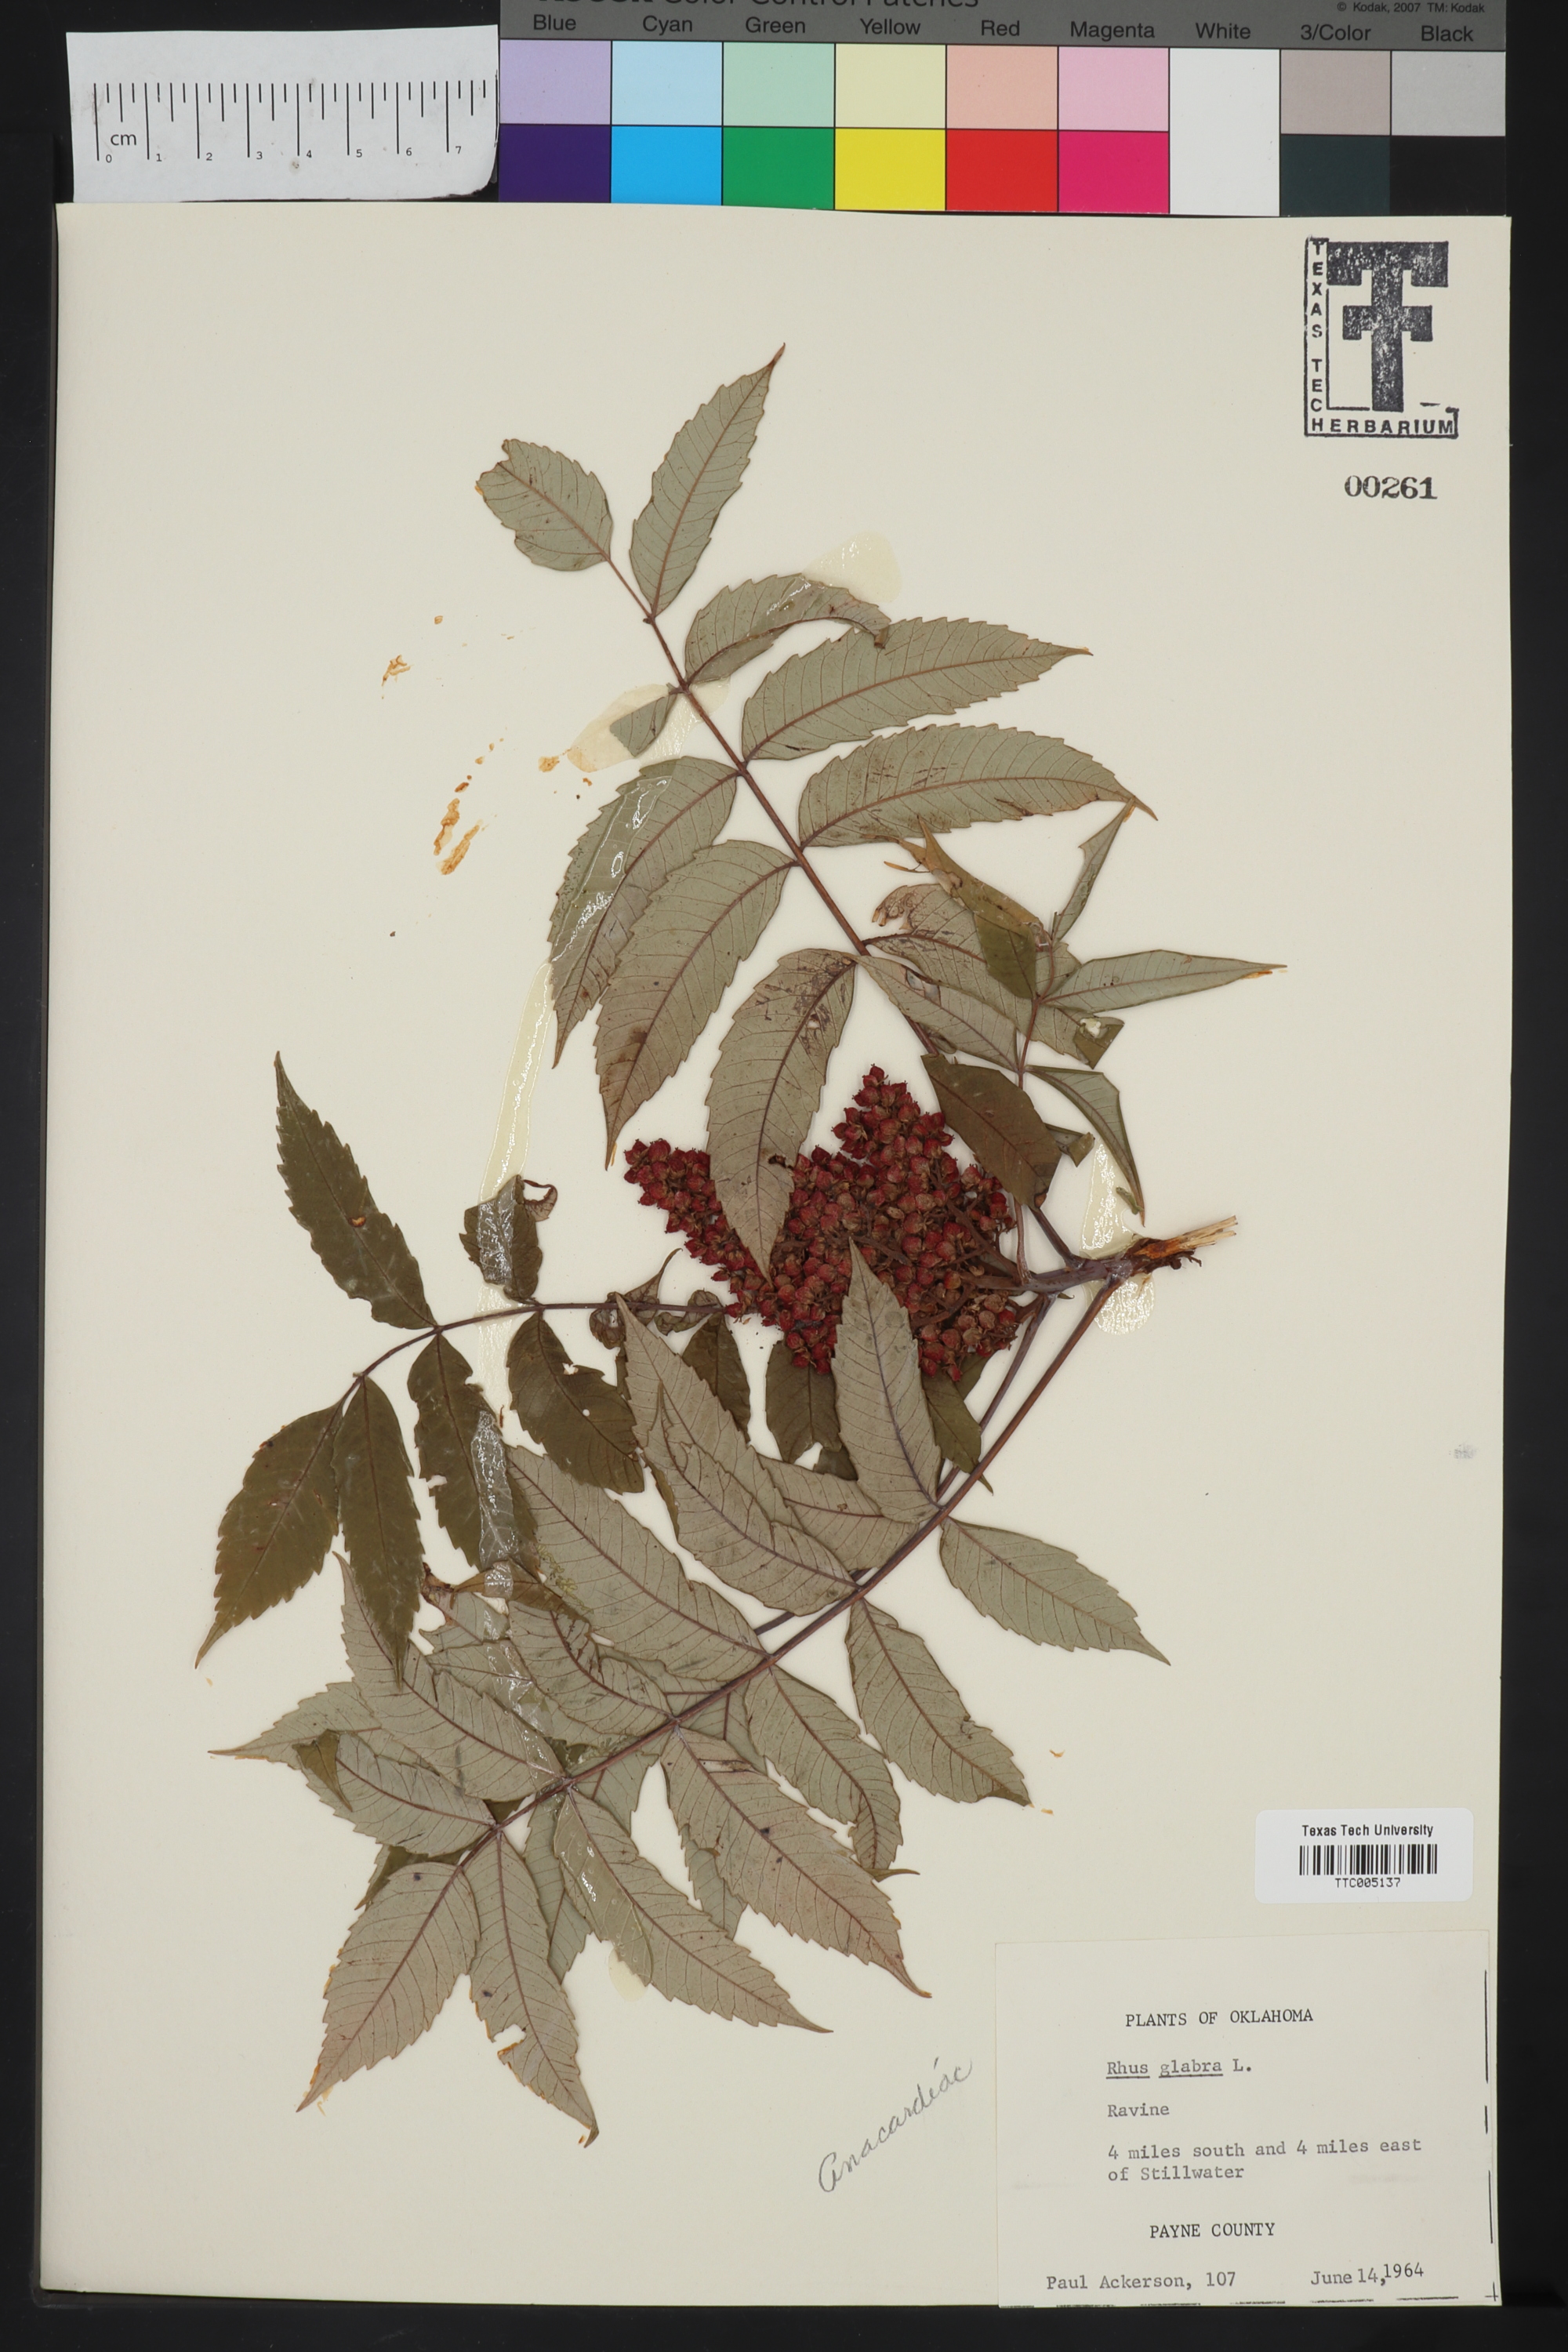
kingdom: Plantae
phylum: Tracheophyta
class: Magnoliopsida
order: Sapindales
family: Anacardiaceae
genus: Rhus
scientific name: Rhus glabra
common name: Scarlet sumac
